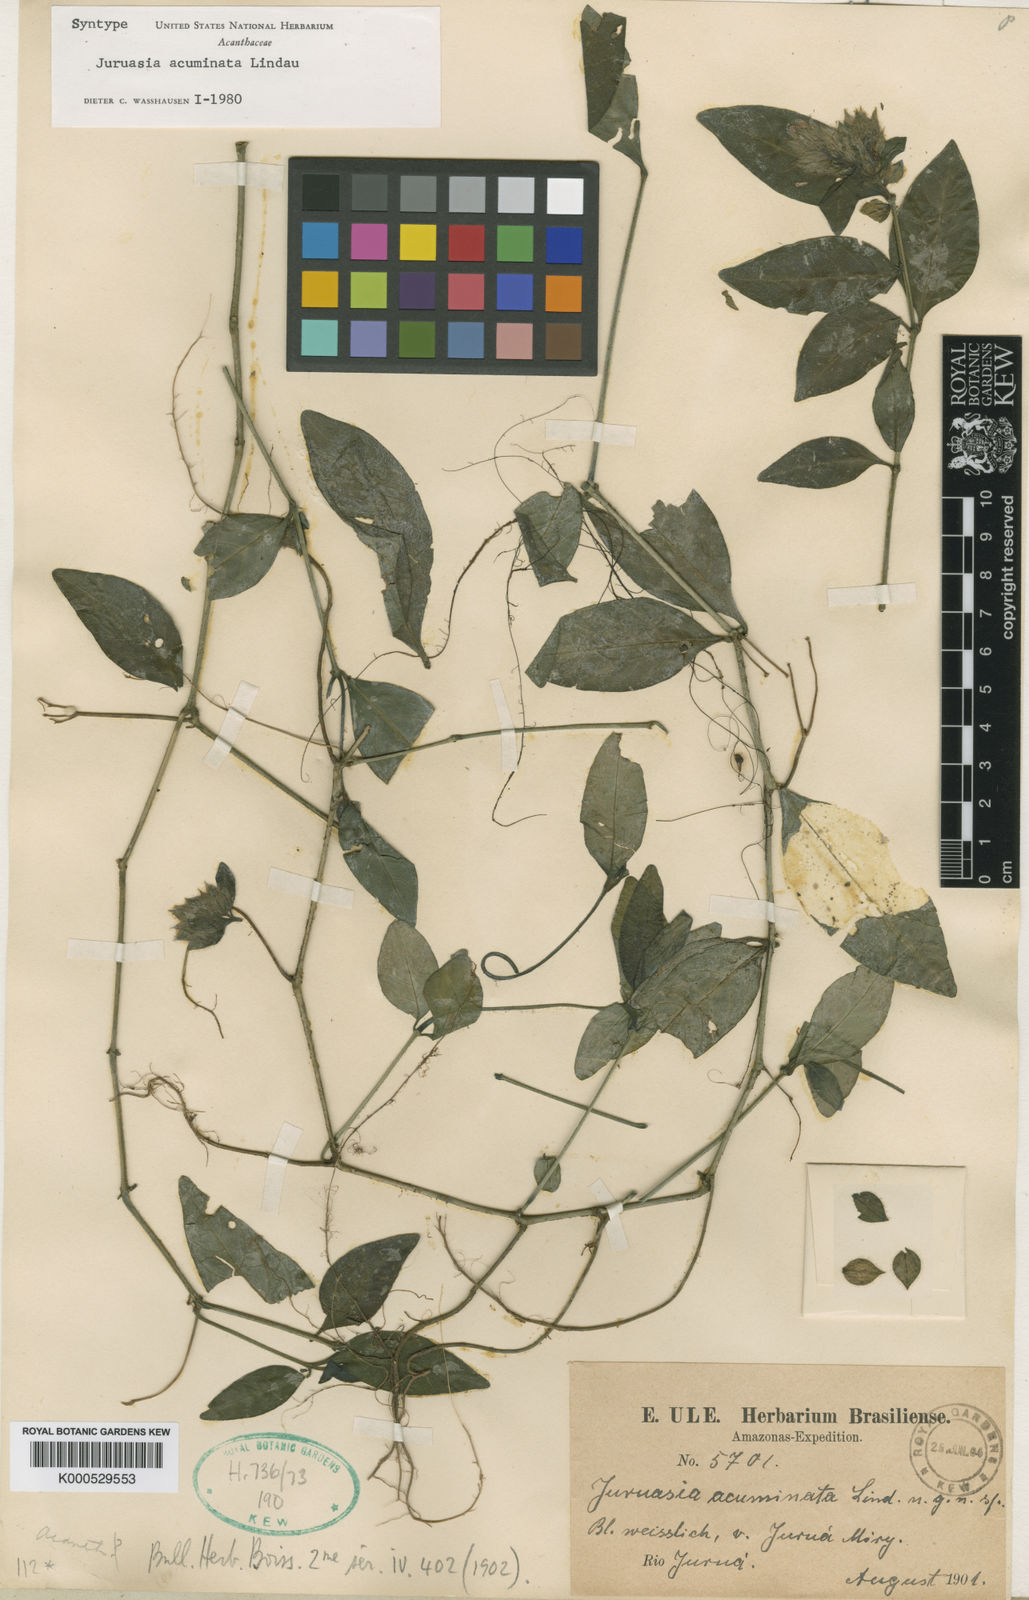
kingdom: Plantae
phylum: Tracheophyta
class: Magnoliopsida
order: Lamiales
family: Acanthaceae
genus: Herpetacanthus
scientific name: Herpetacanthus acuminatus
